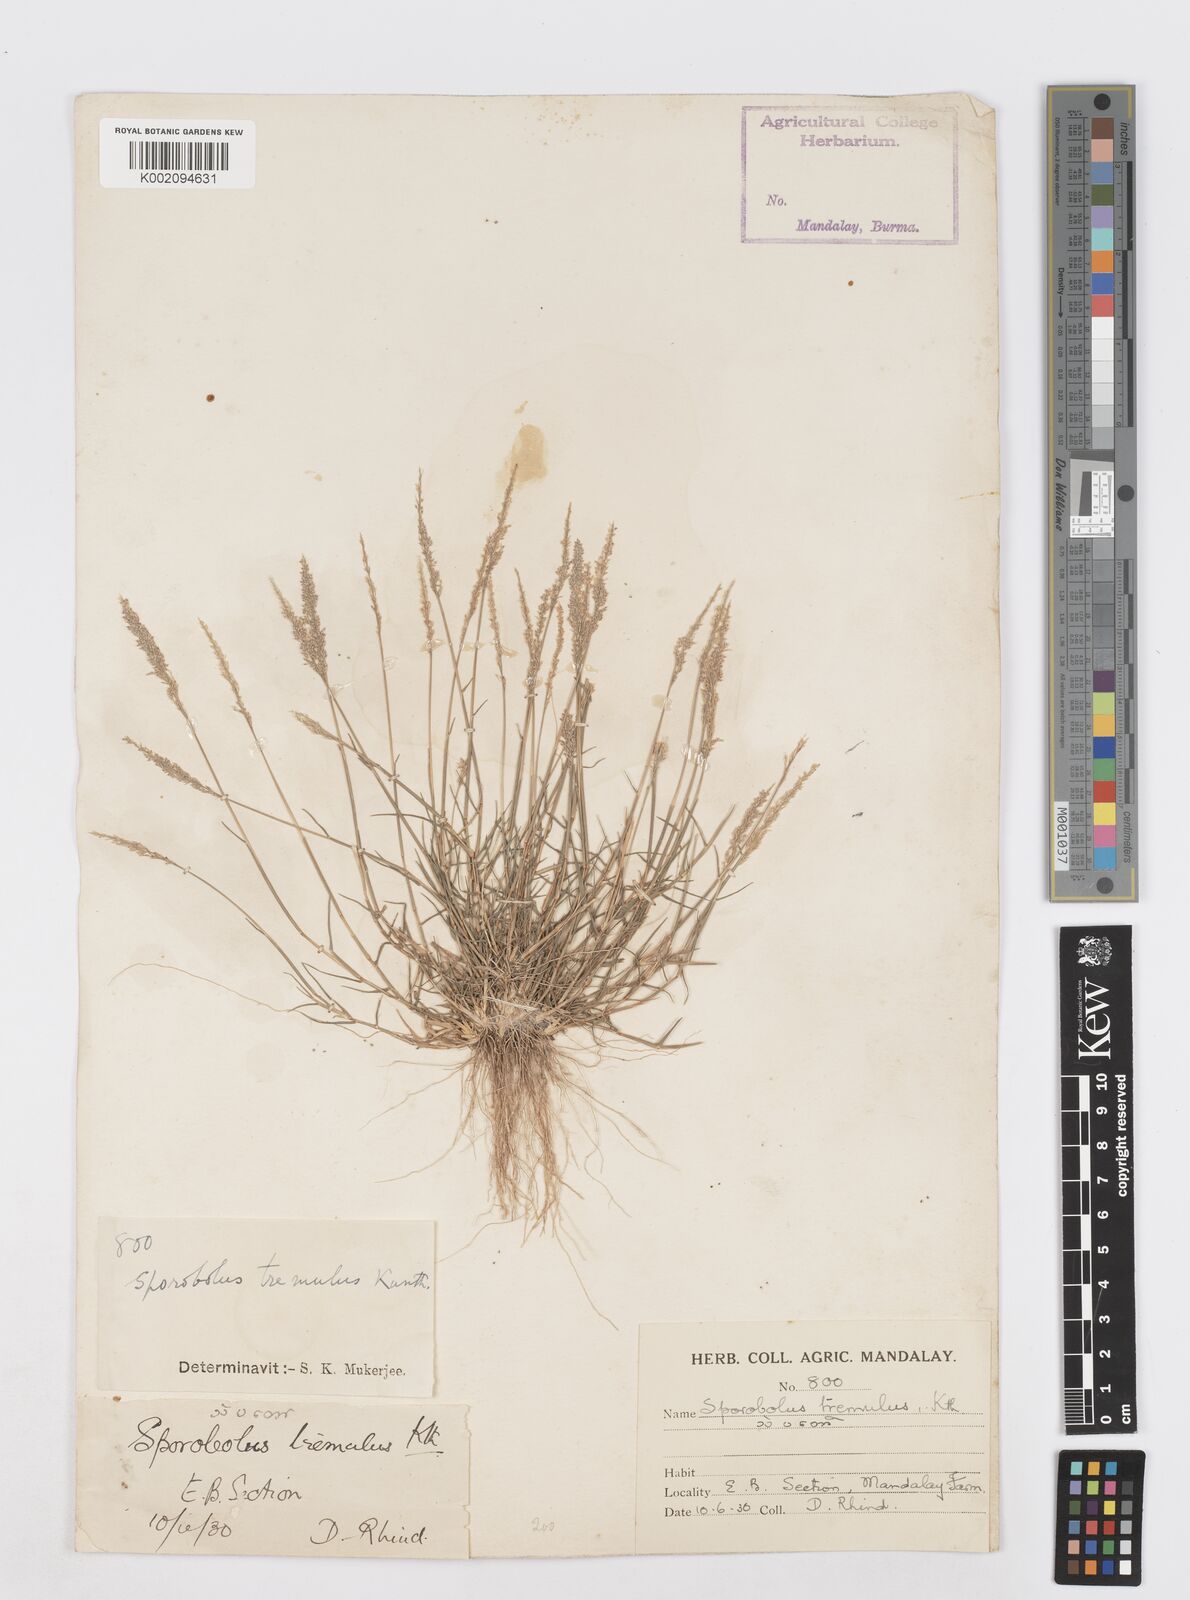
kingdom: Plantae
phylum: Tracheophyta
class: Liliopsida
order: Poales
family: Poaceae
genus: Sporobolus
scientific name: Sporobolus virginicus
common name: Beach dropseed
